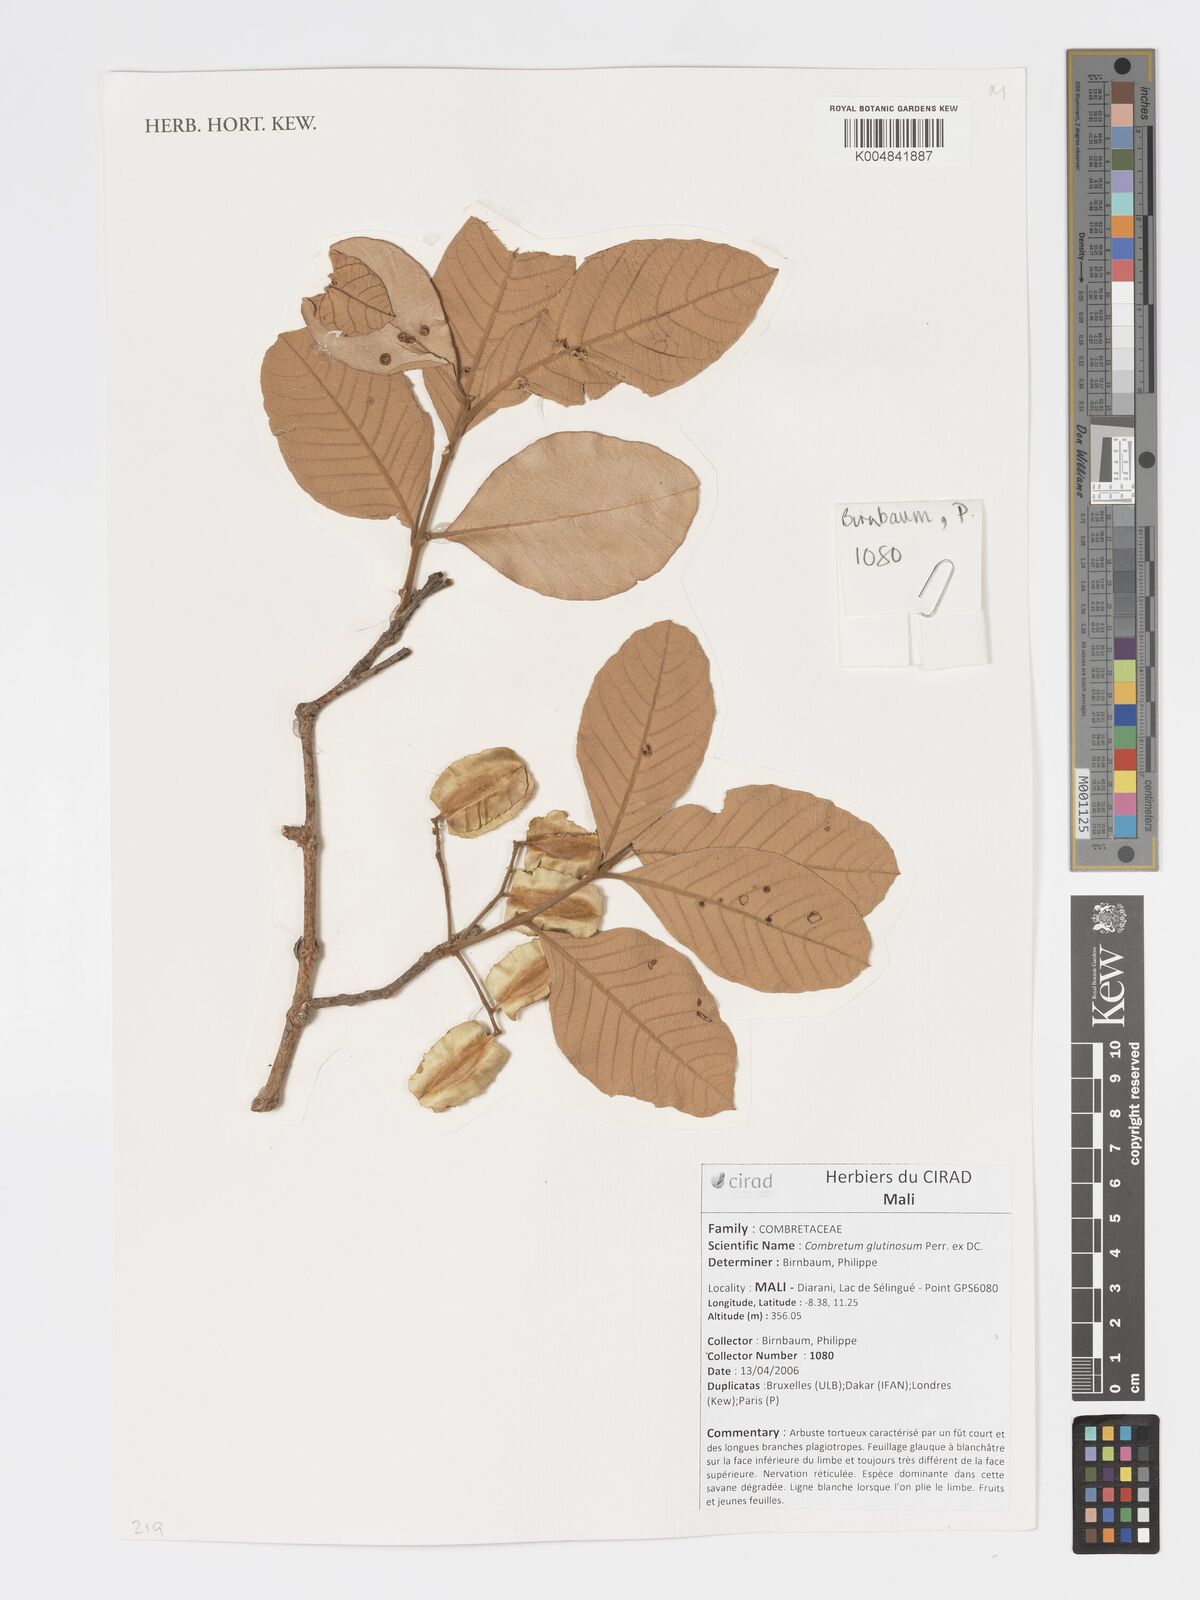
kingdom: Plantae
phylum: Tracheophyta
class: Magnoliopsida
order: Myrtales
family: Combretaceae
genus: Combretum
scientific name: Combretum
